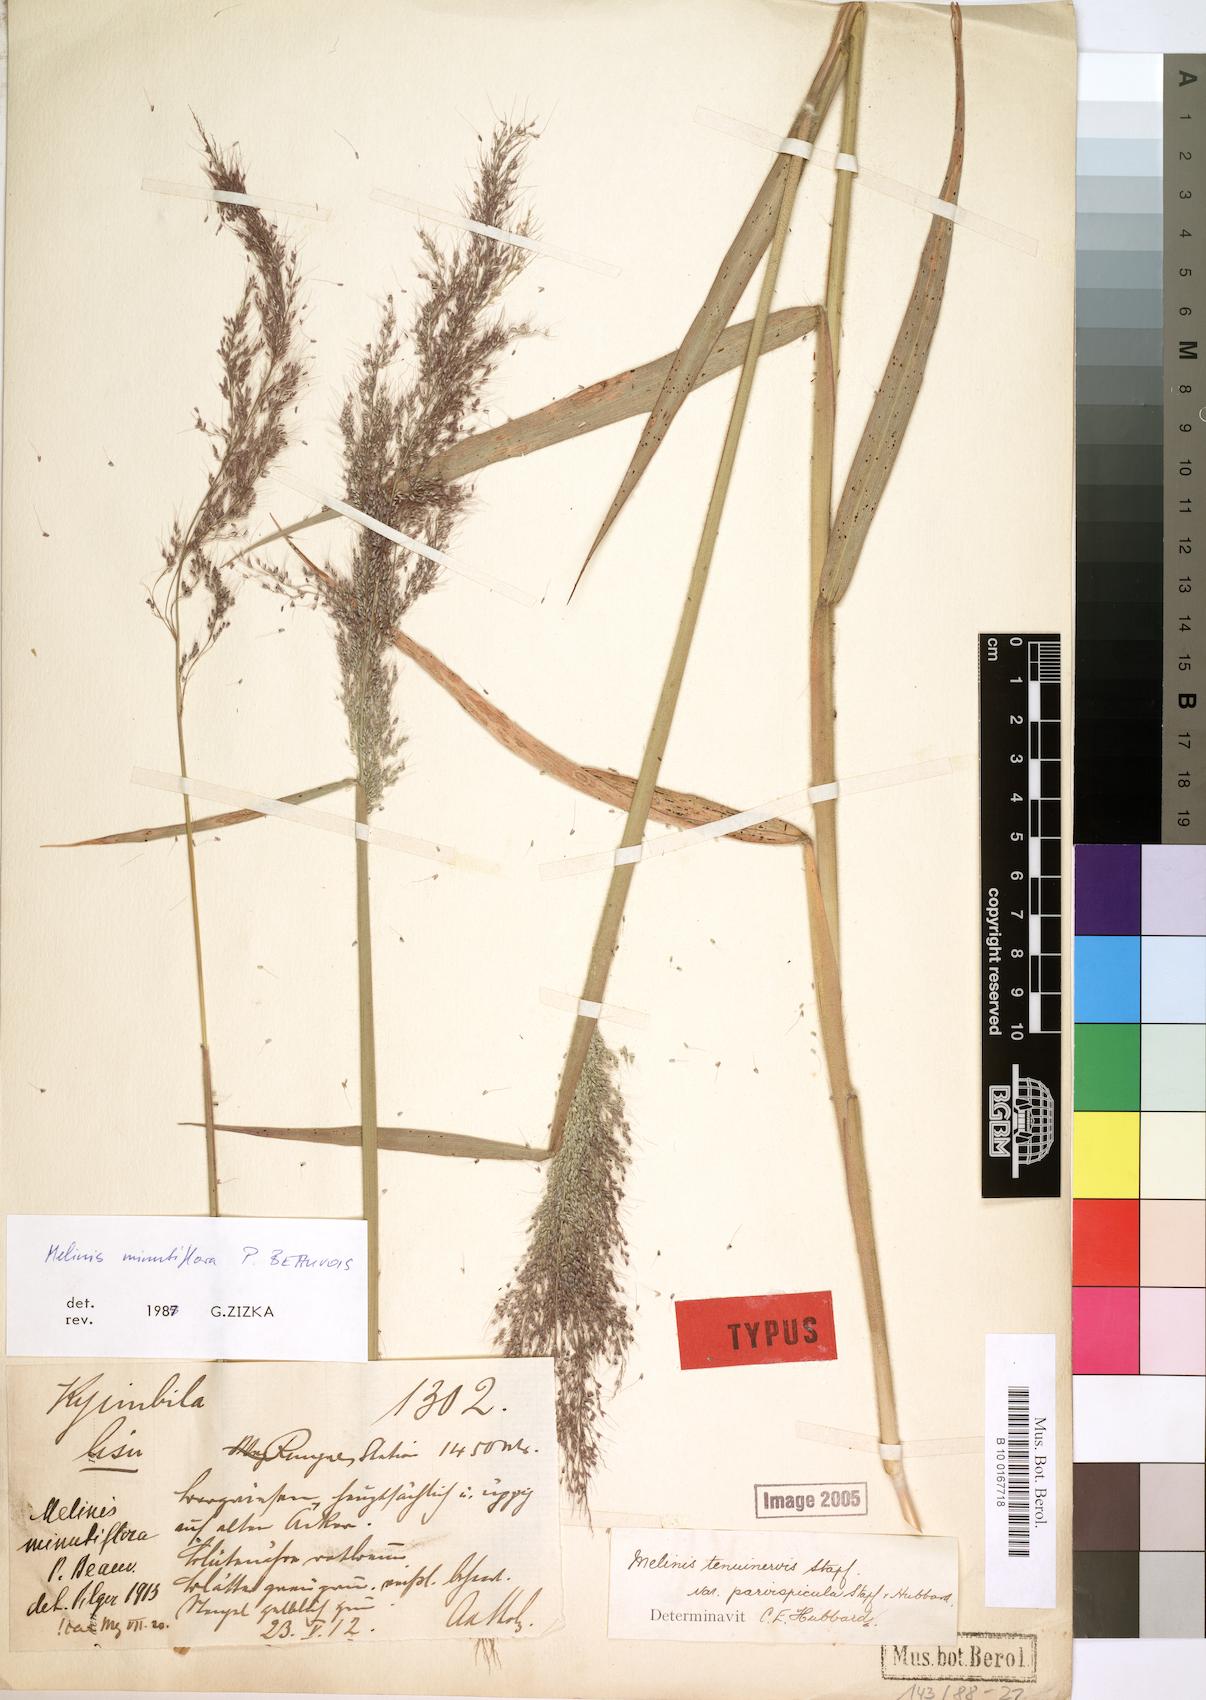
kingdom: Plantae
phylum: Tracheophyta
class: Liliopsida
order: Poales
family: Poaceae
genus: Melinis
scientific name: Melinis minutiflora
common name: Molassesgrass
